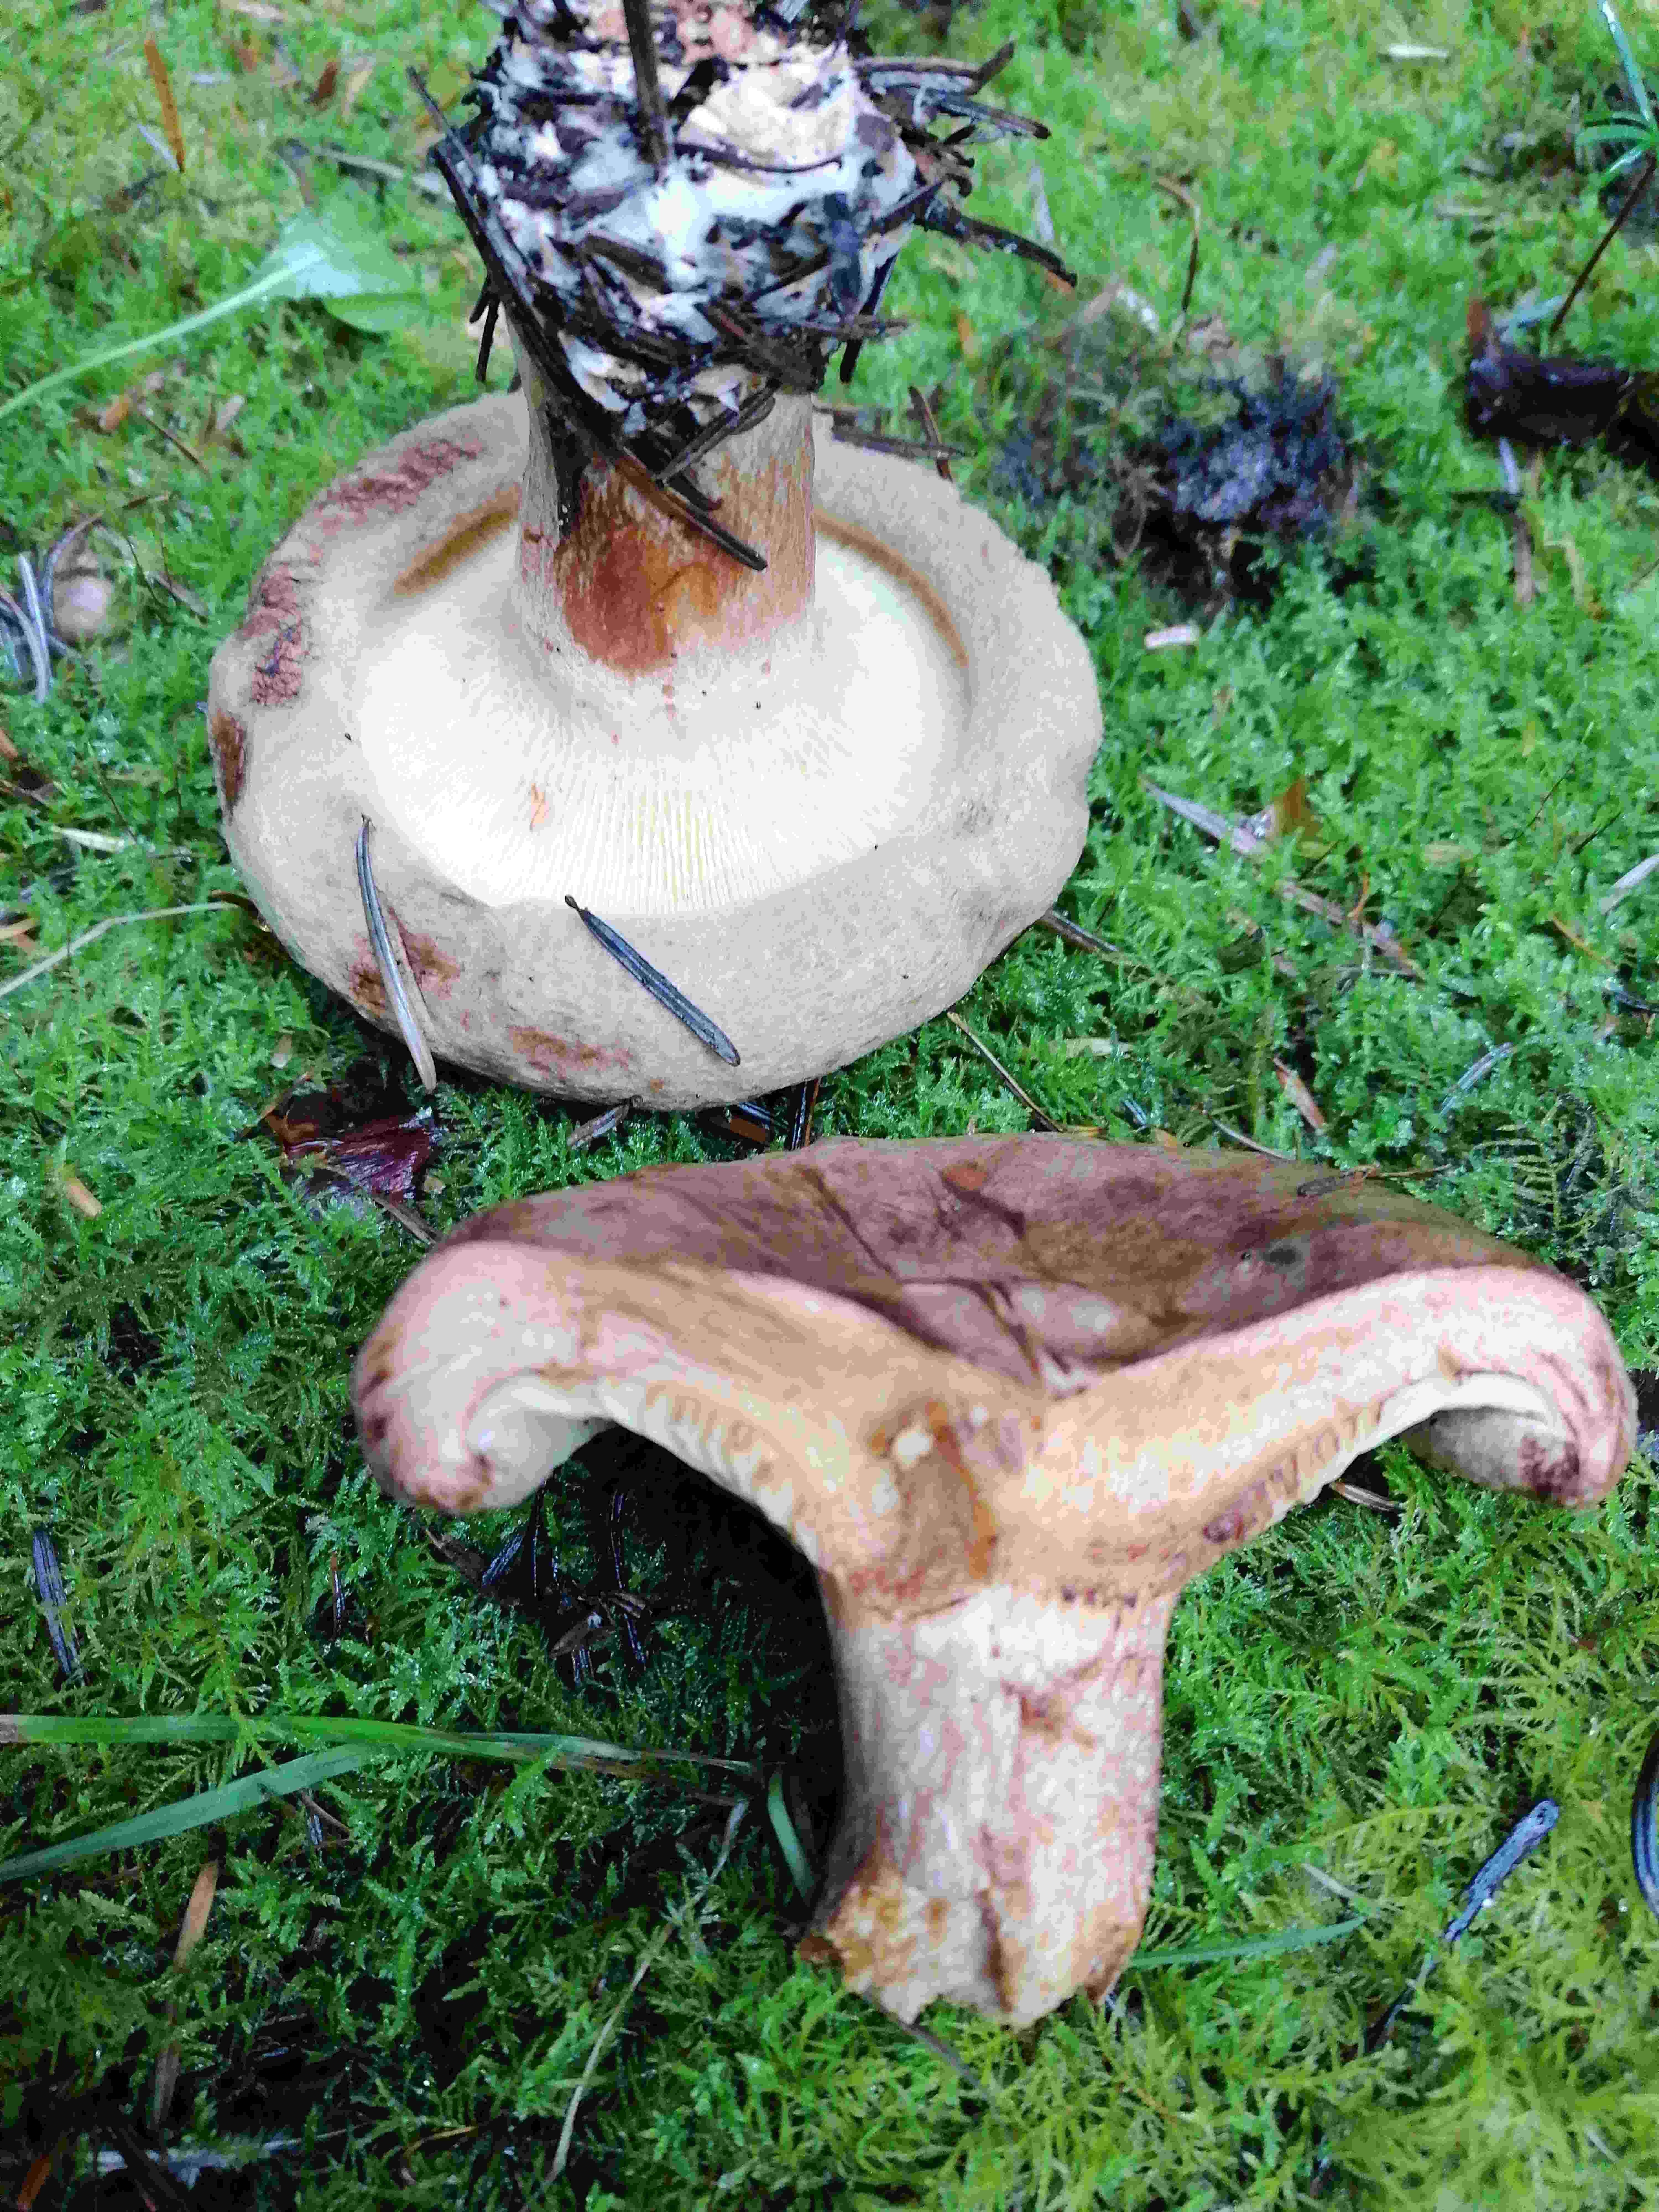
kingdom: Fungi
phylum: Basidiomycota
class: Agaricomycetes
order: Boletales
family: Paxillaceae
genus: Paxillus
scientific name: Paxillus
